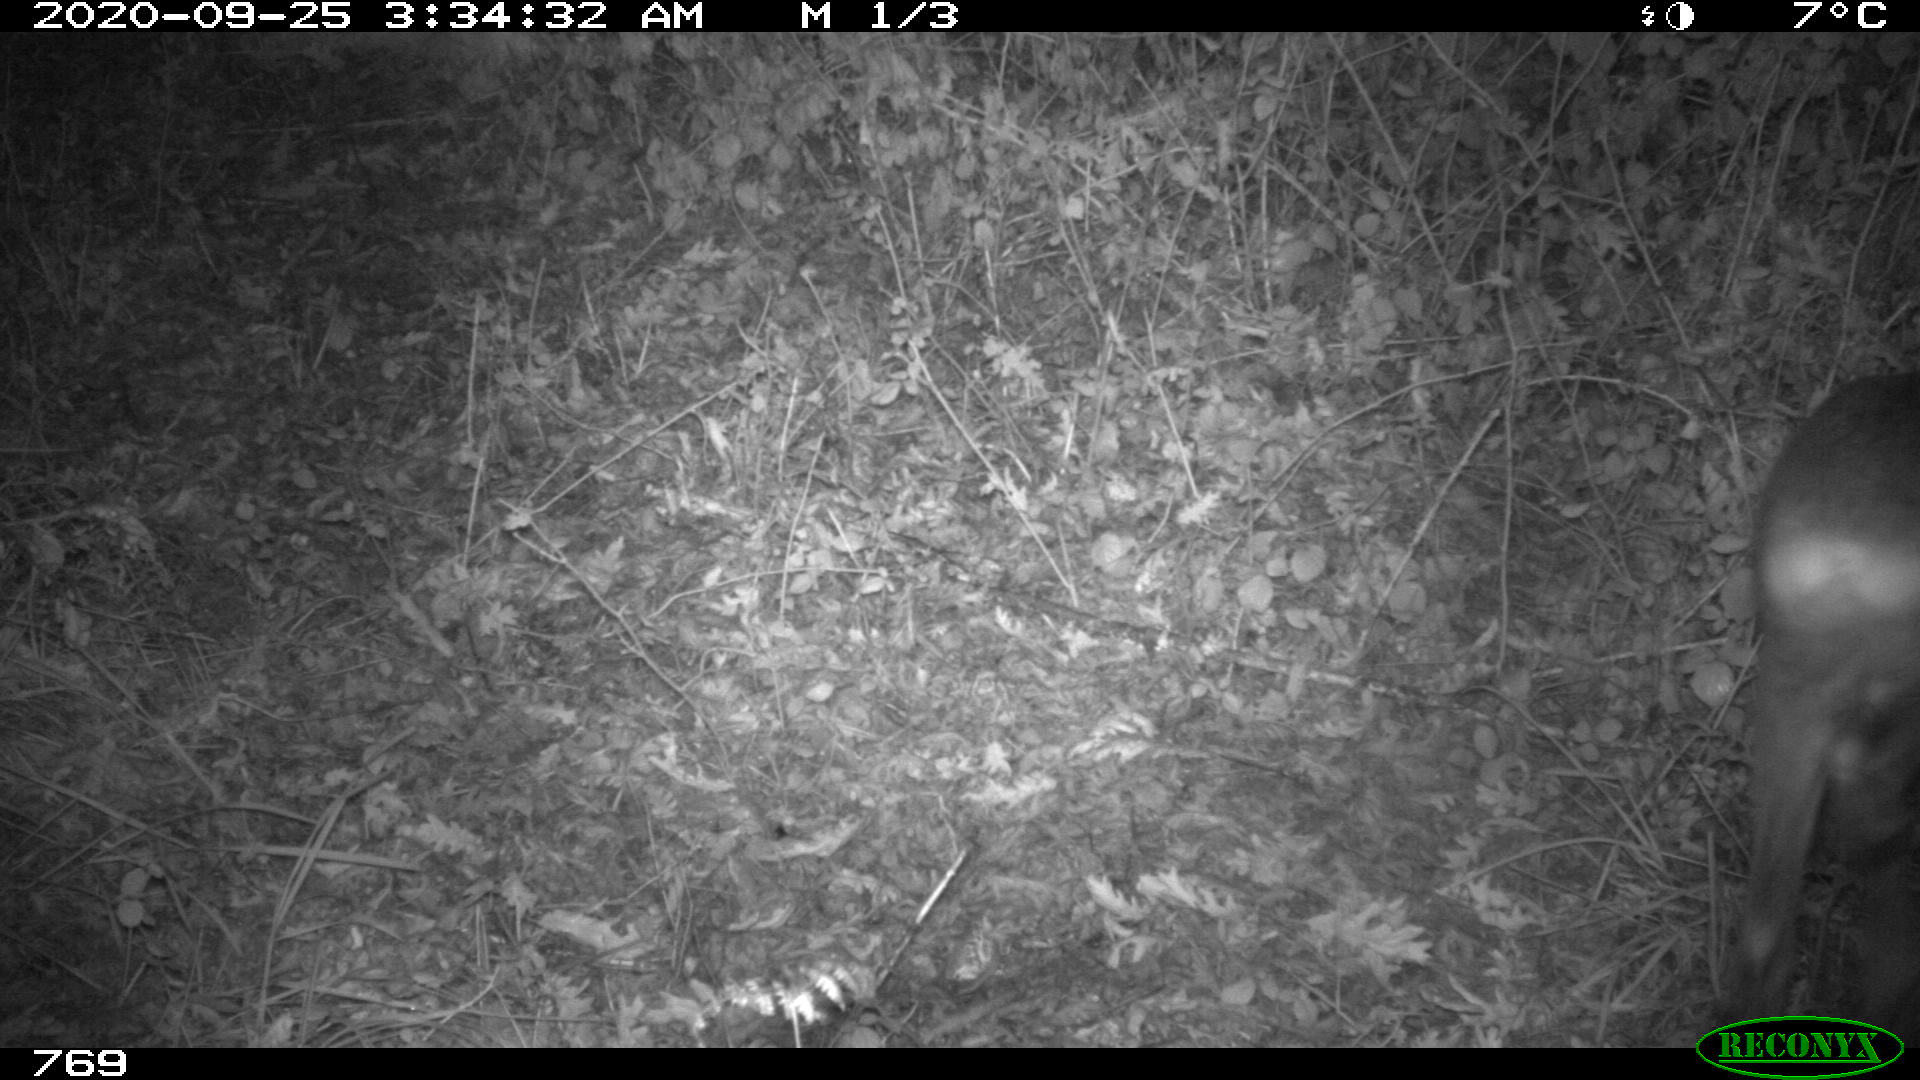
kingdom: Animalia
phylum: Chordata
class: Mammalia
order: Artiodactyla
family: Cervidae
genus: Capreolus
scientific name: Capreolus capreolus
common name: Western roe deer
